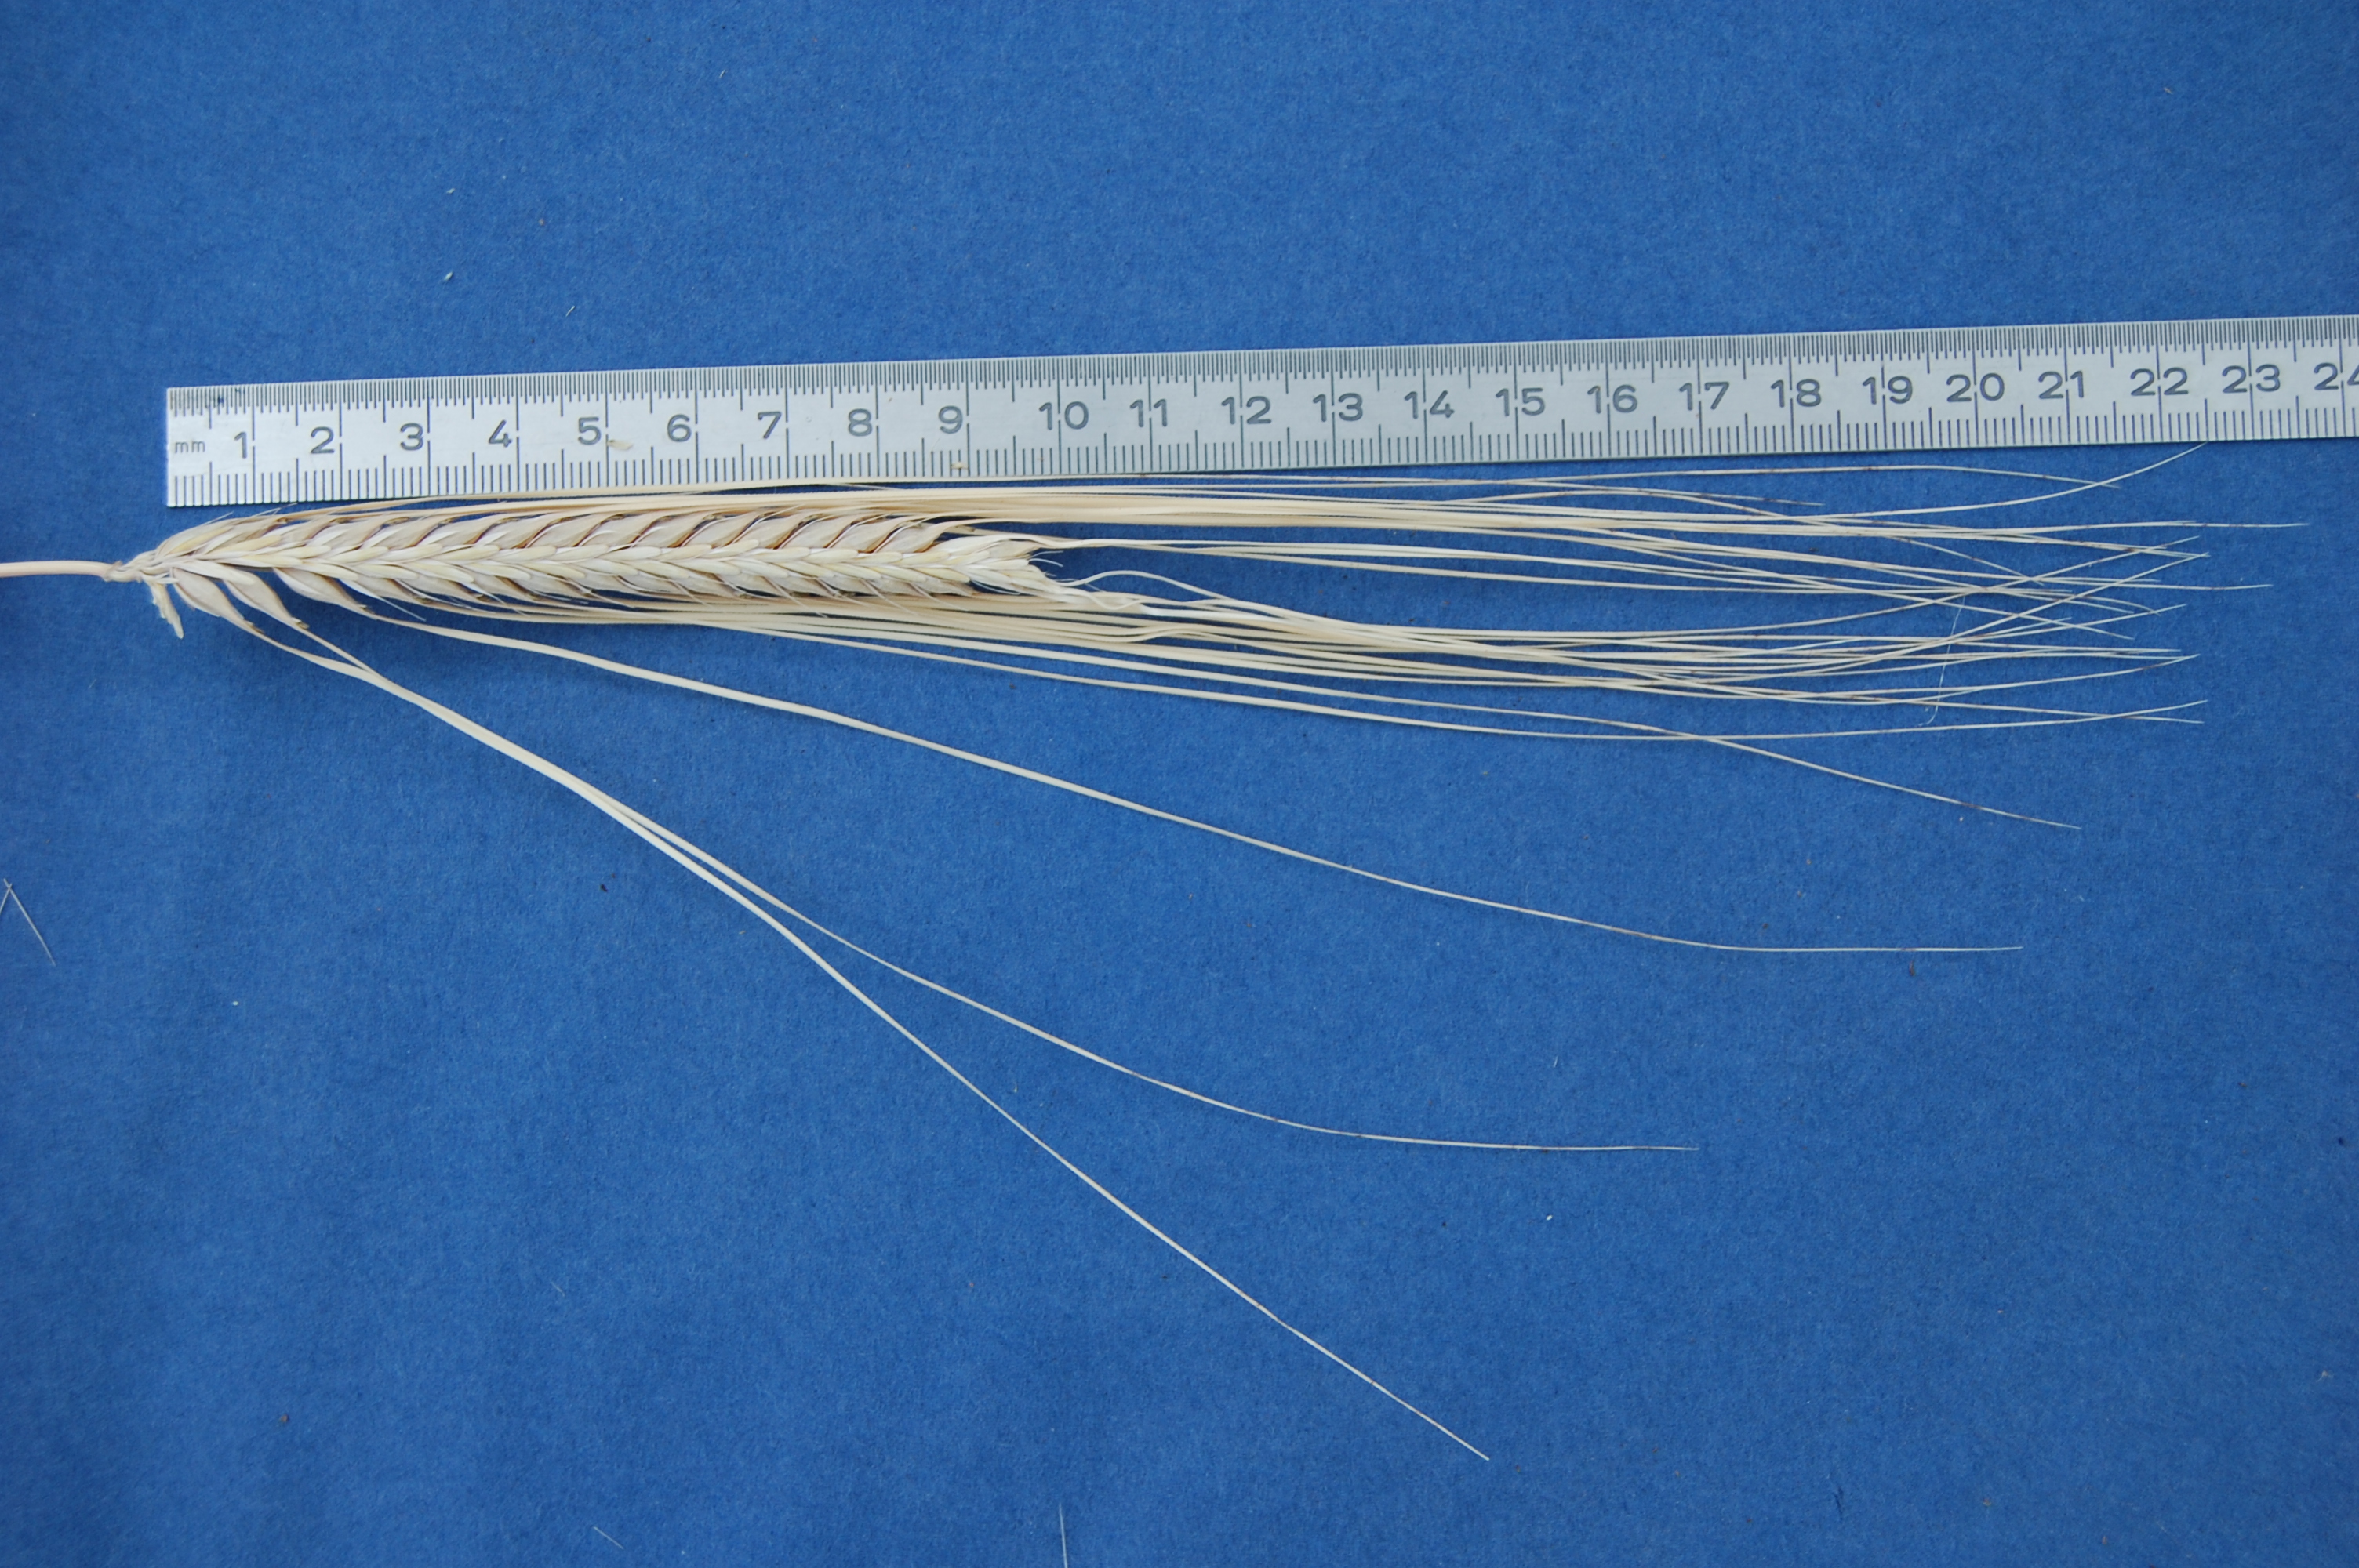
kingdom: Plantae
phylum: Tracheophyta
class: Liliopsida
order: Poales
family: Poaceae
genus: Hordeum
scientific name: Hordeum vulgare
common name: Common barley
